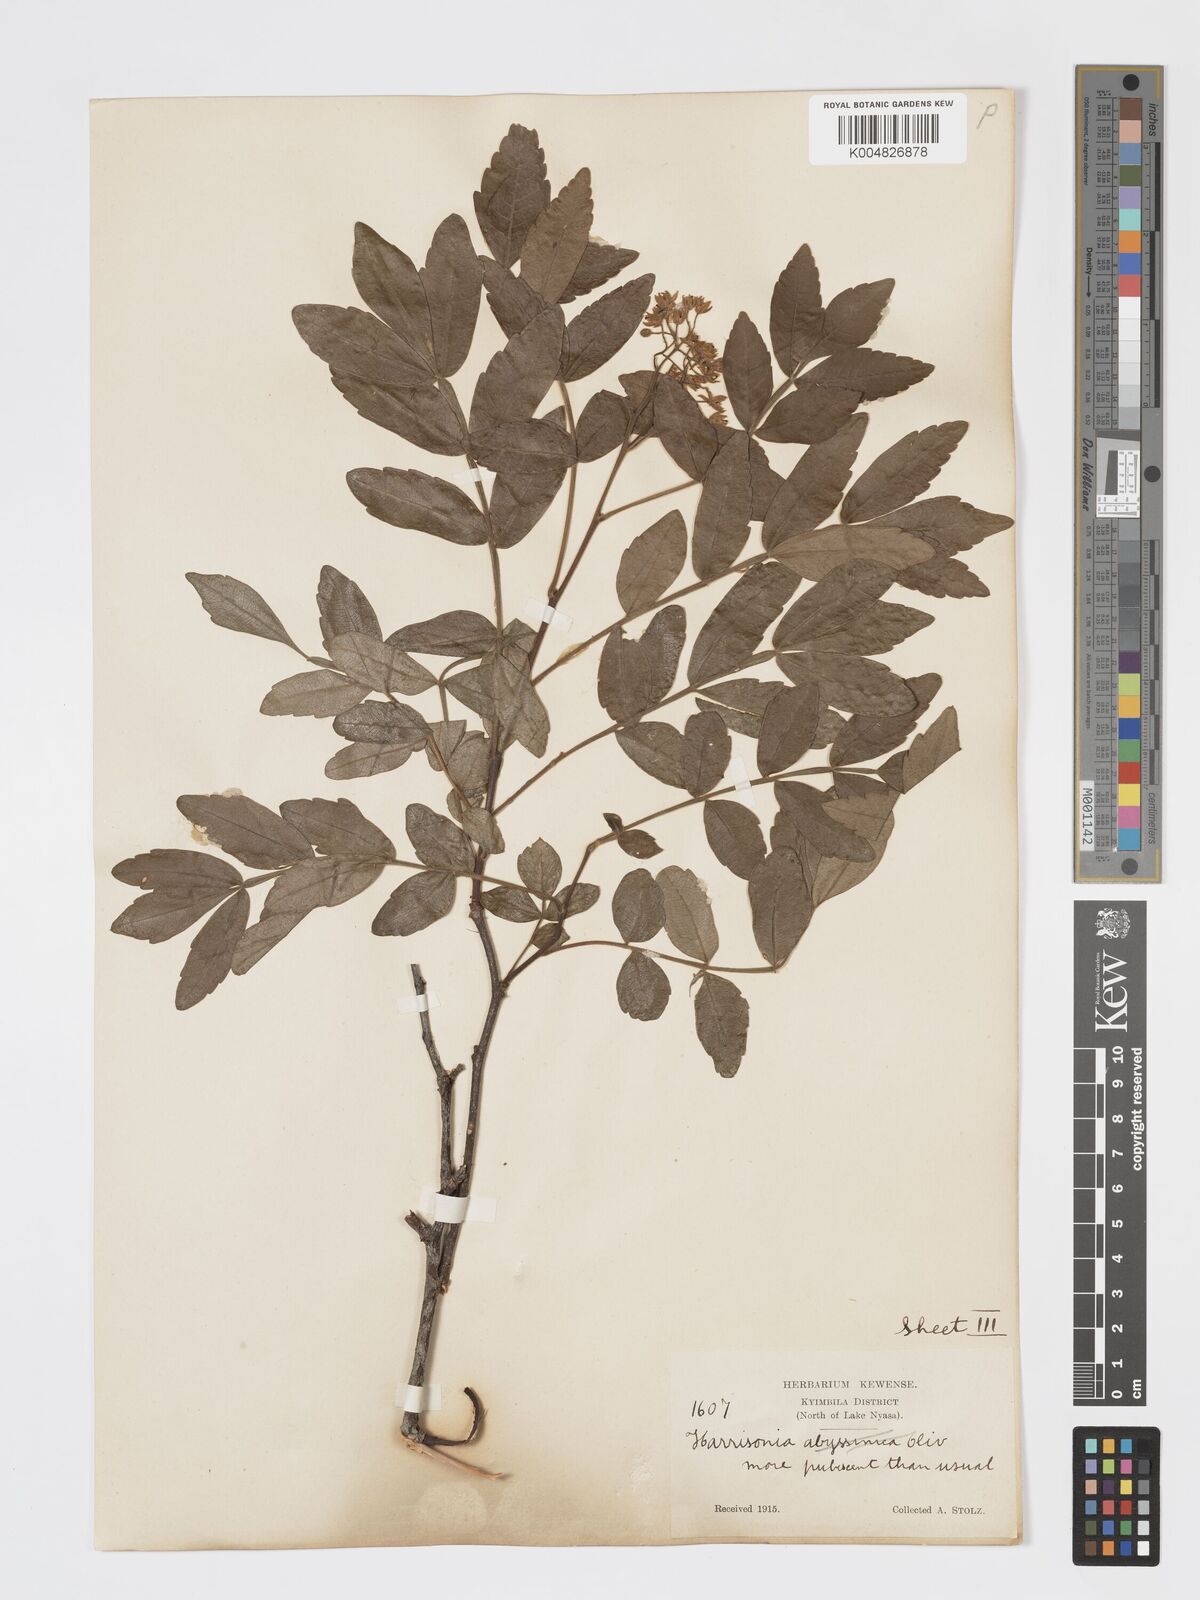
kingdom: Plantae
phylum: Tracheophyta
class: Magnoliopsida
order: Sapindales
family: Rutaceae
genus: Harrisonia
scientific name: Harrisonia abyssinica
